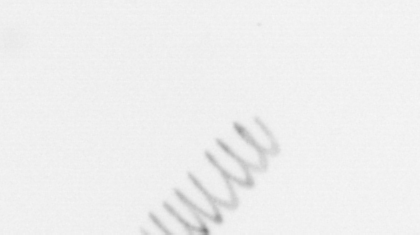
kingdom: Chromista
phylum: Ochrophyta
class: Bacillariophyceae
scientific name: Bacillariophyceae
